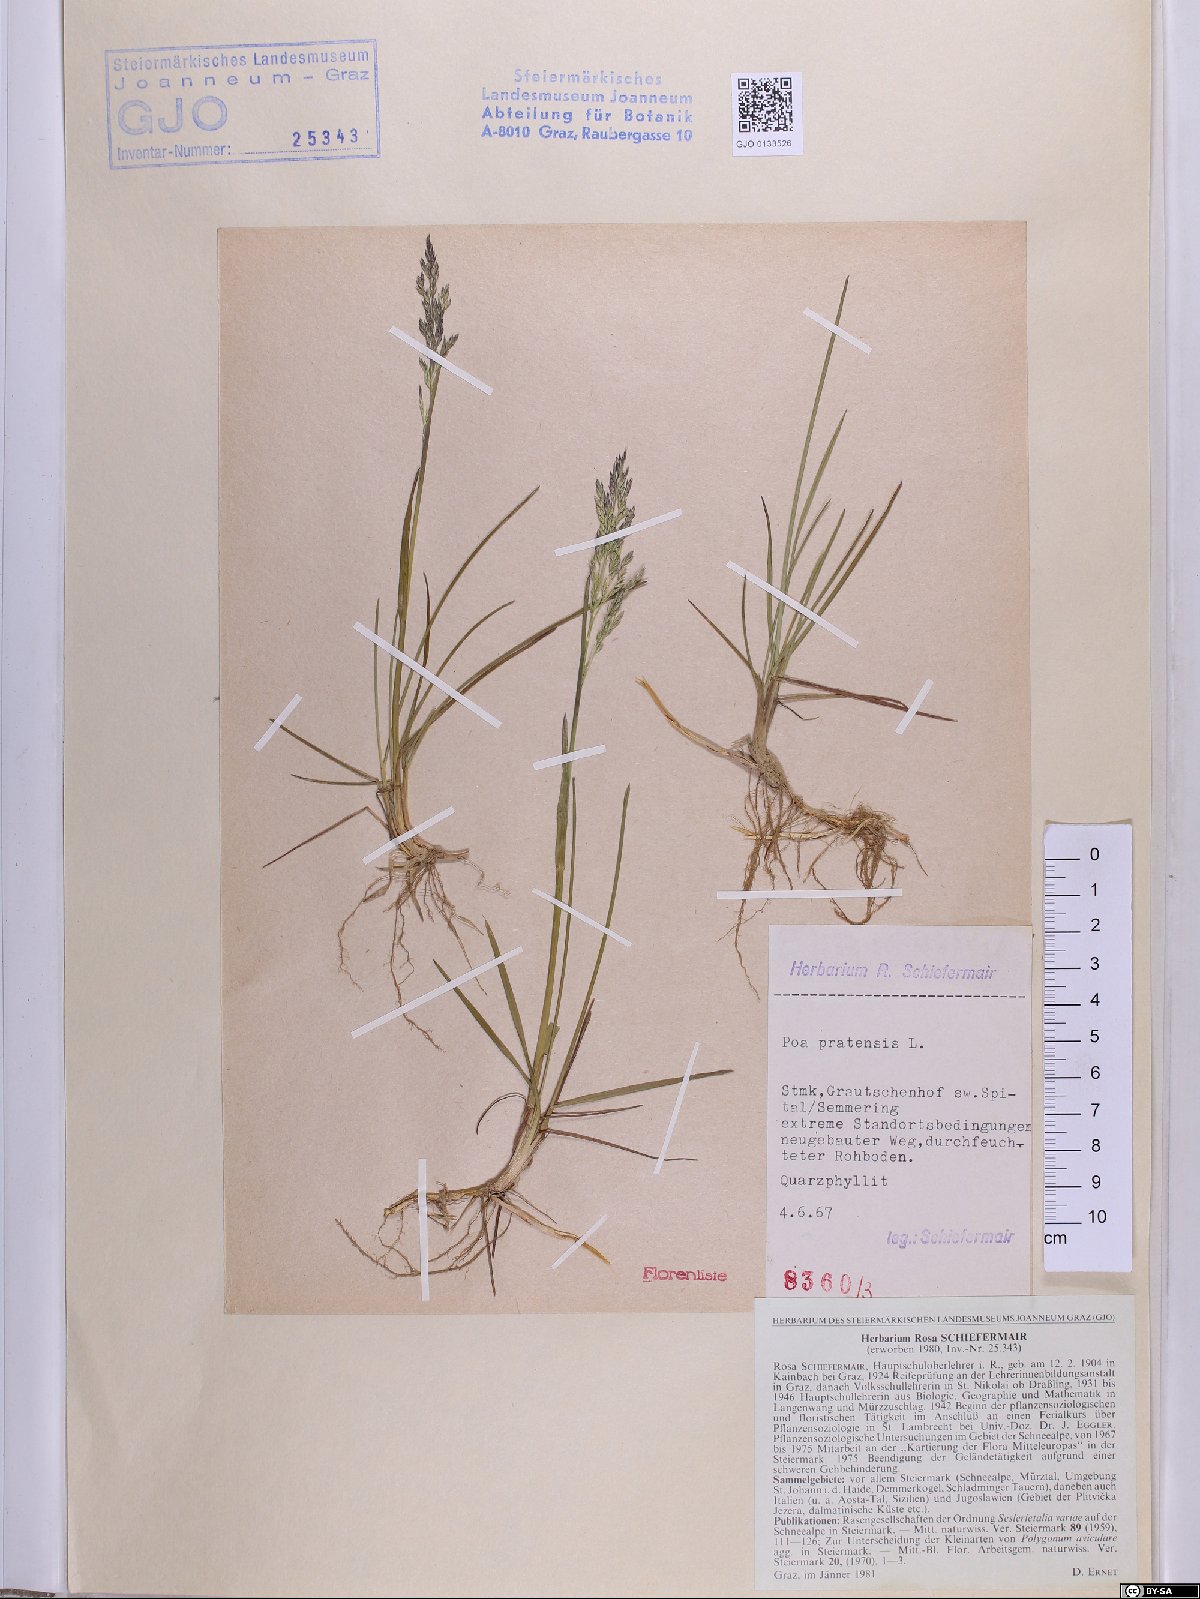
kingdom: Plantae
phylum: Tracheophyta
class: Liliopsida
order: Poales
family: Poaceae
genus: Poa
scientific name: Poa pratensis
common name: Kentucky bluegrass
